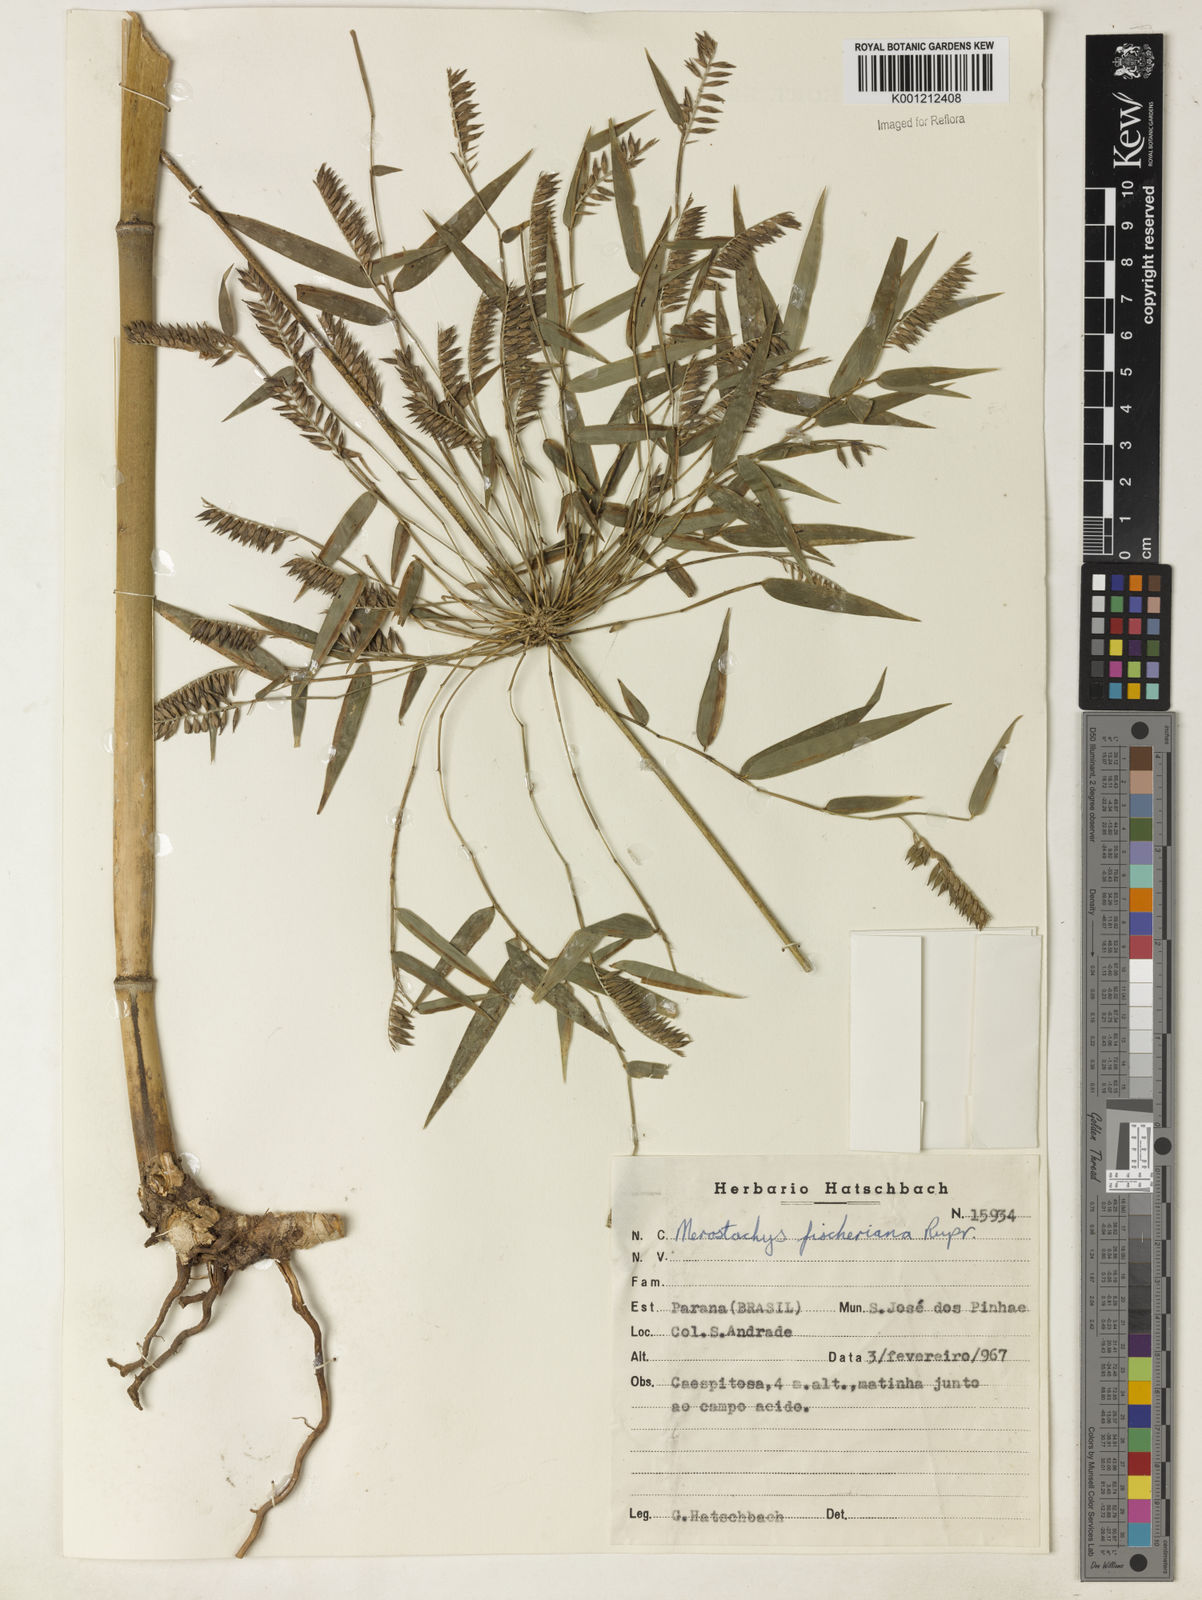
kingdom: Plantae
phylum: Tracheophyta
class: Liliopsida
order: Poales
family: Poaceae
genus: Merostachys
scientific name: Merostachys
